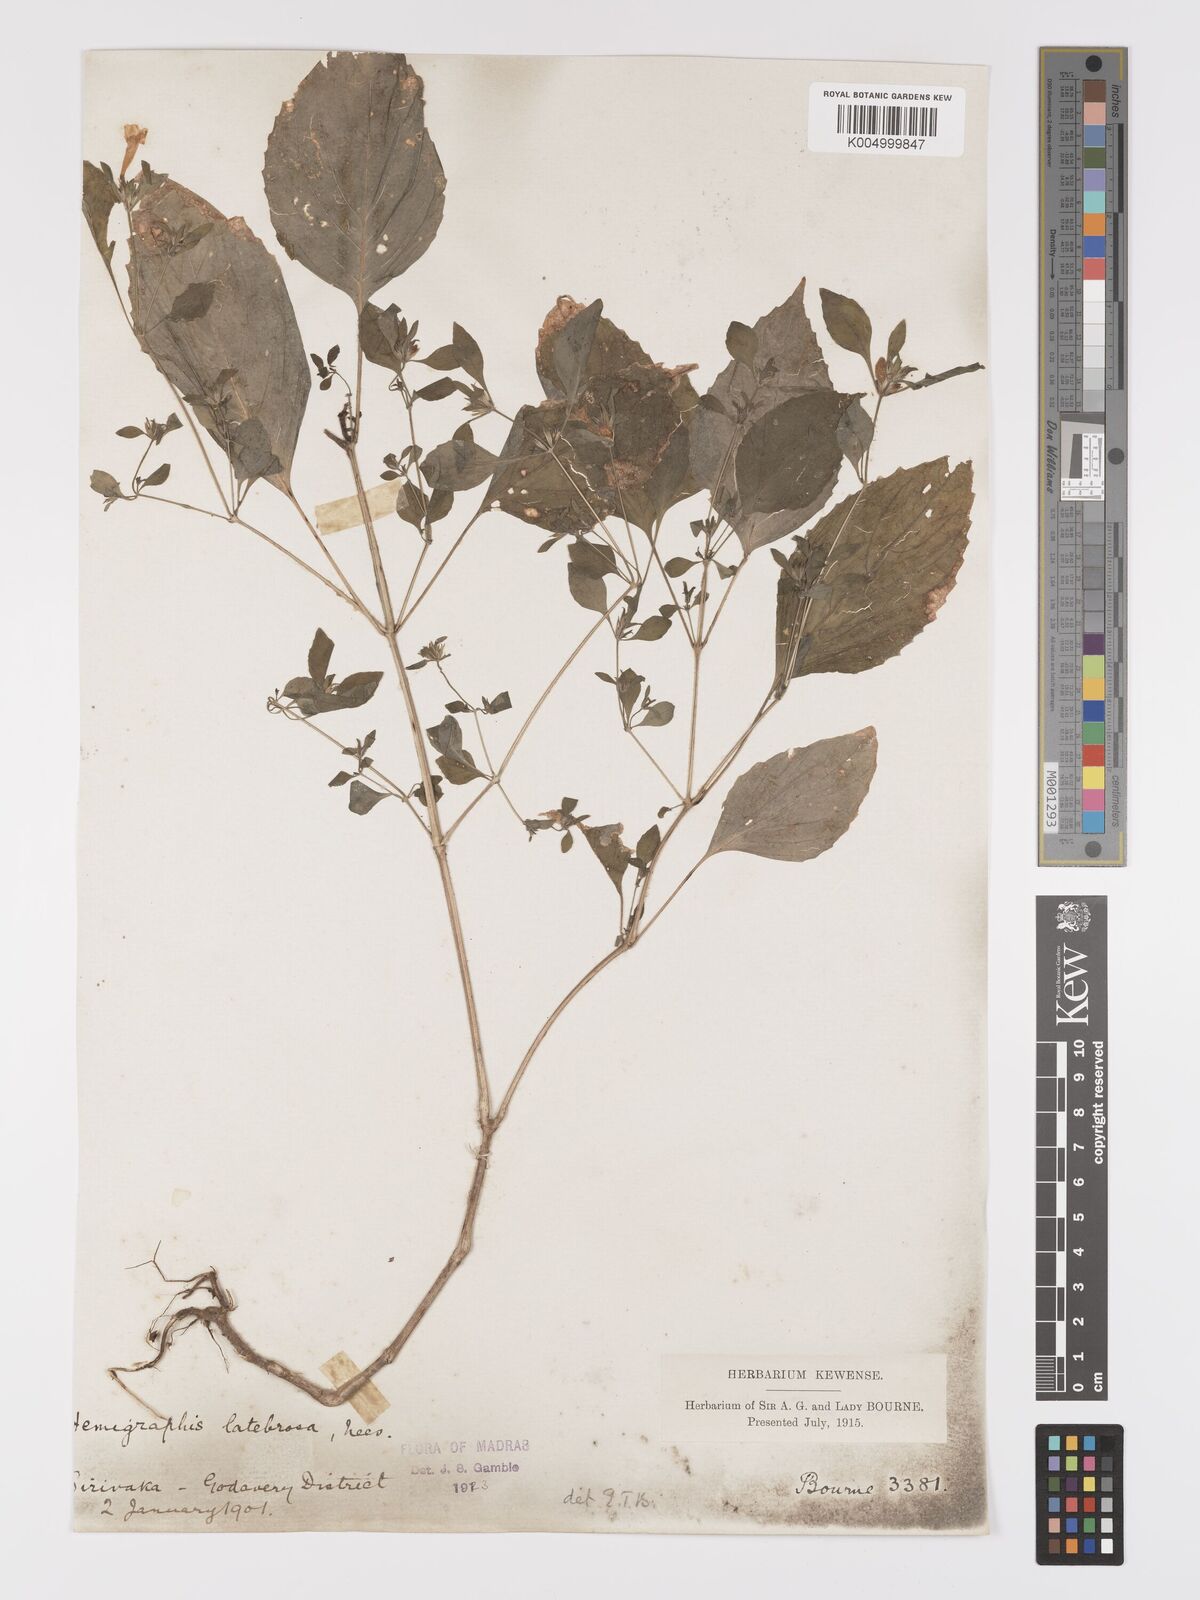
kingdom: Plantae
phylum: Tracheophyta
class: Magnoliopsida
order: Lamiales
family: Acanthaceae
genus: Strobilanthes
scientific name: Strobilanthes pavala
